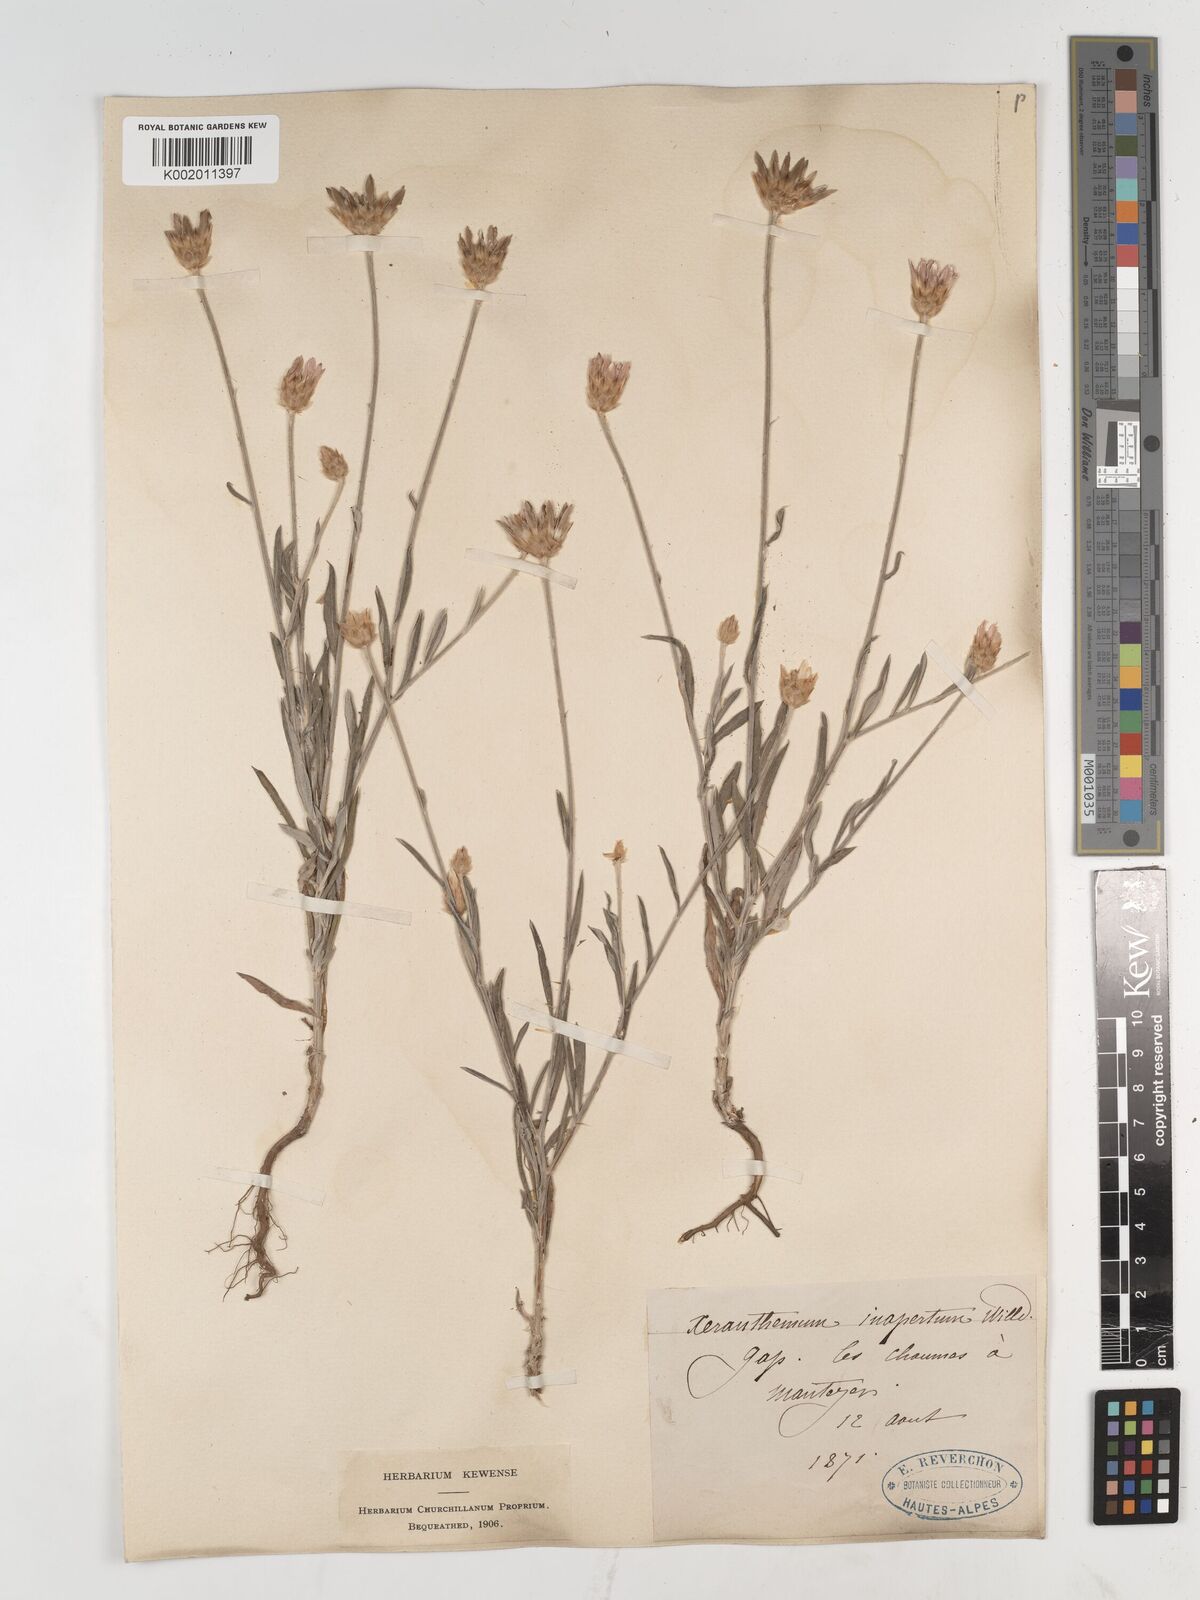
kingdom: Plantae
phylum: Tracheophyta
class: Magnoliopsida
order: Asterales
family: Asteraceae
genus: Xeranthemum
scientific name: Xeranthemum inapertum
